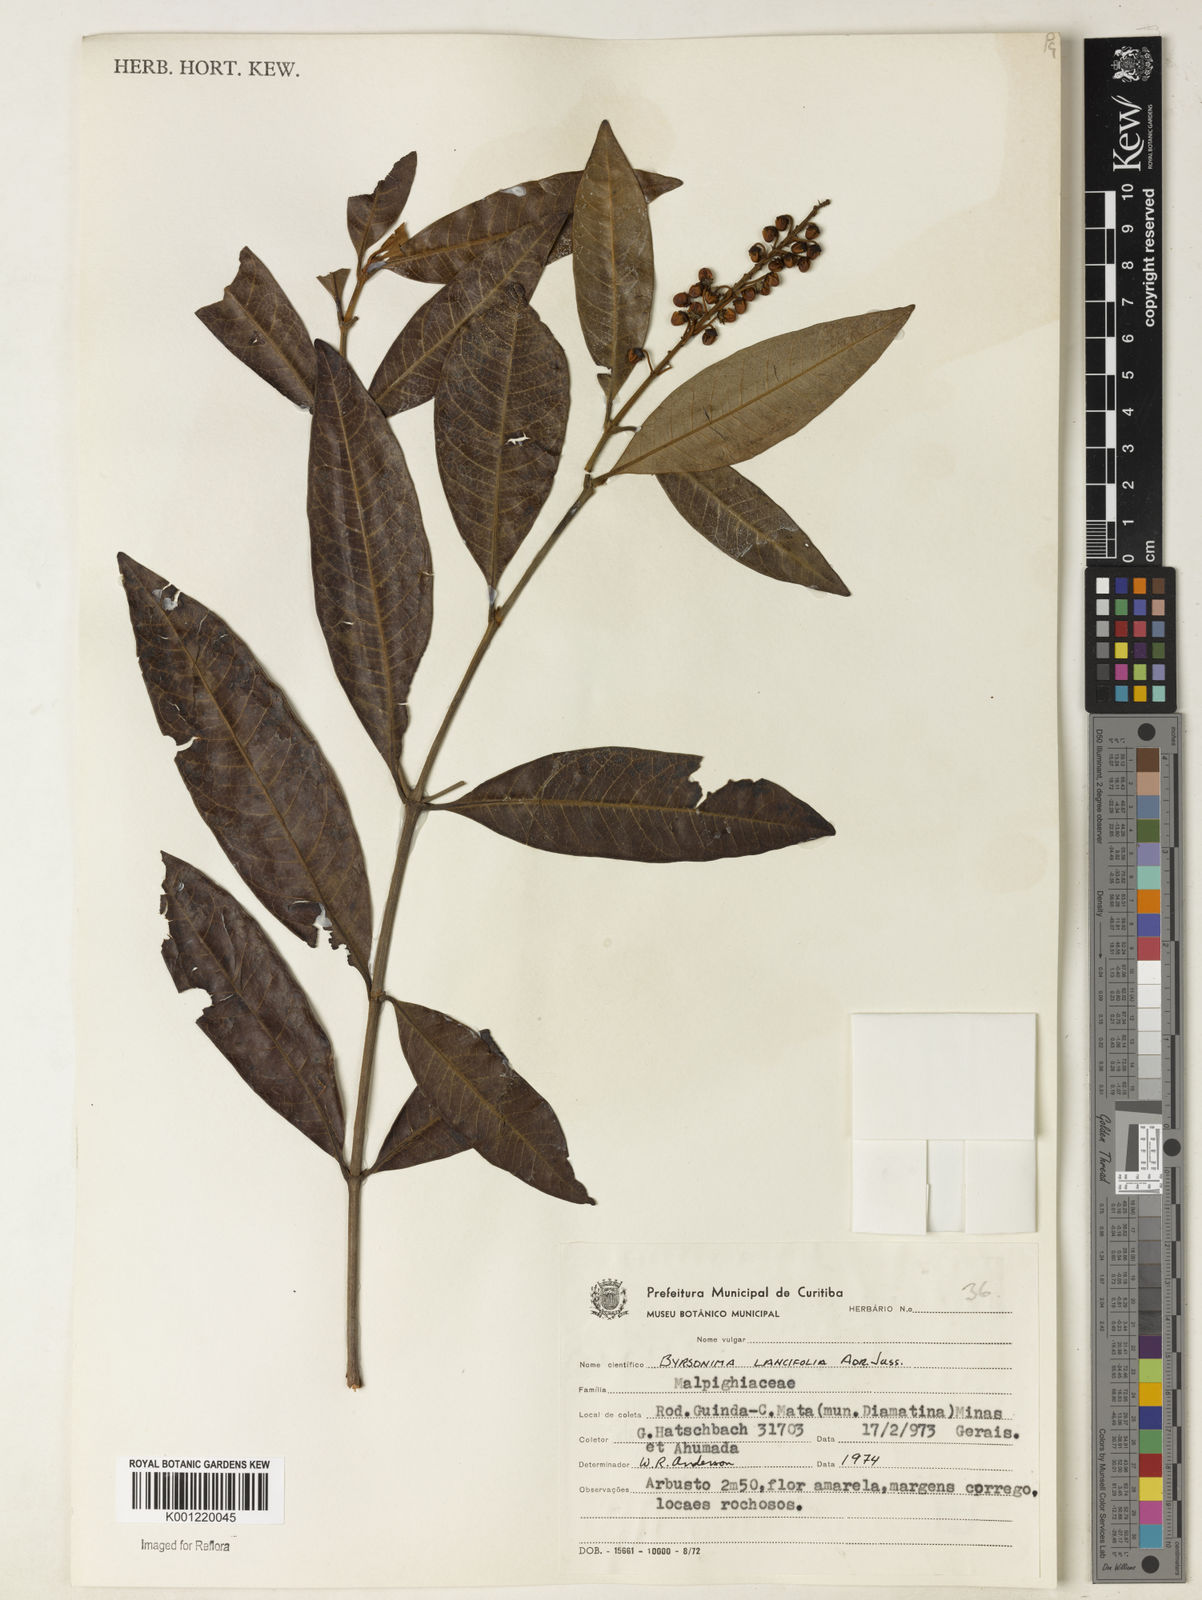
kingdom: Plantae
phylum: Tracheophyta
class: Magnoliopsida
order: Malpighiales
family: Malpighiaceae
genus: Byrsonima
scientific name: Byrsonima lancifolia
